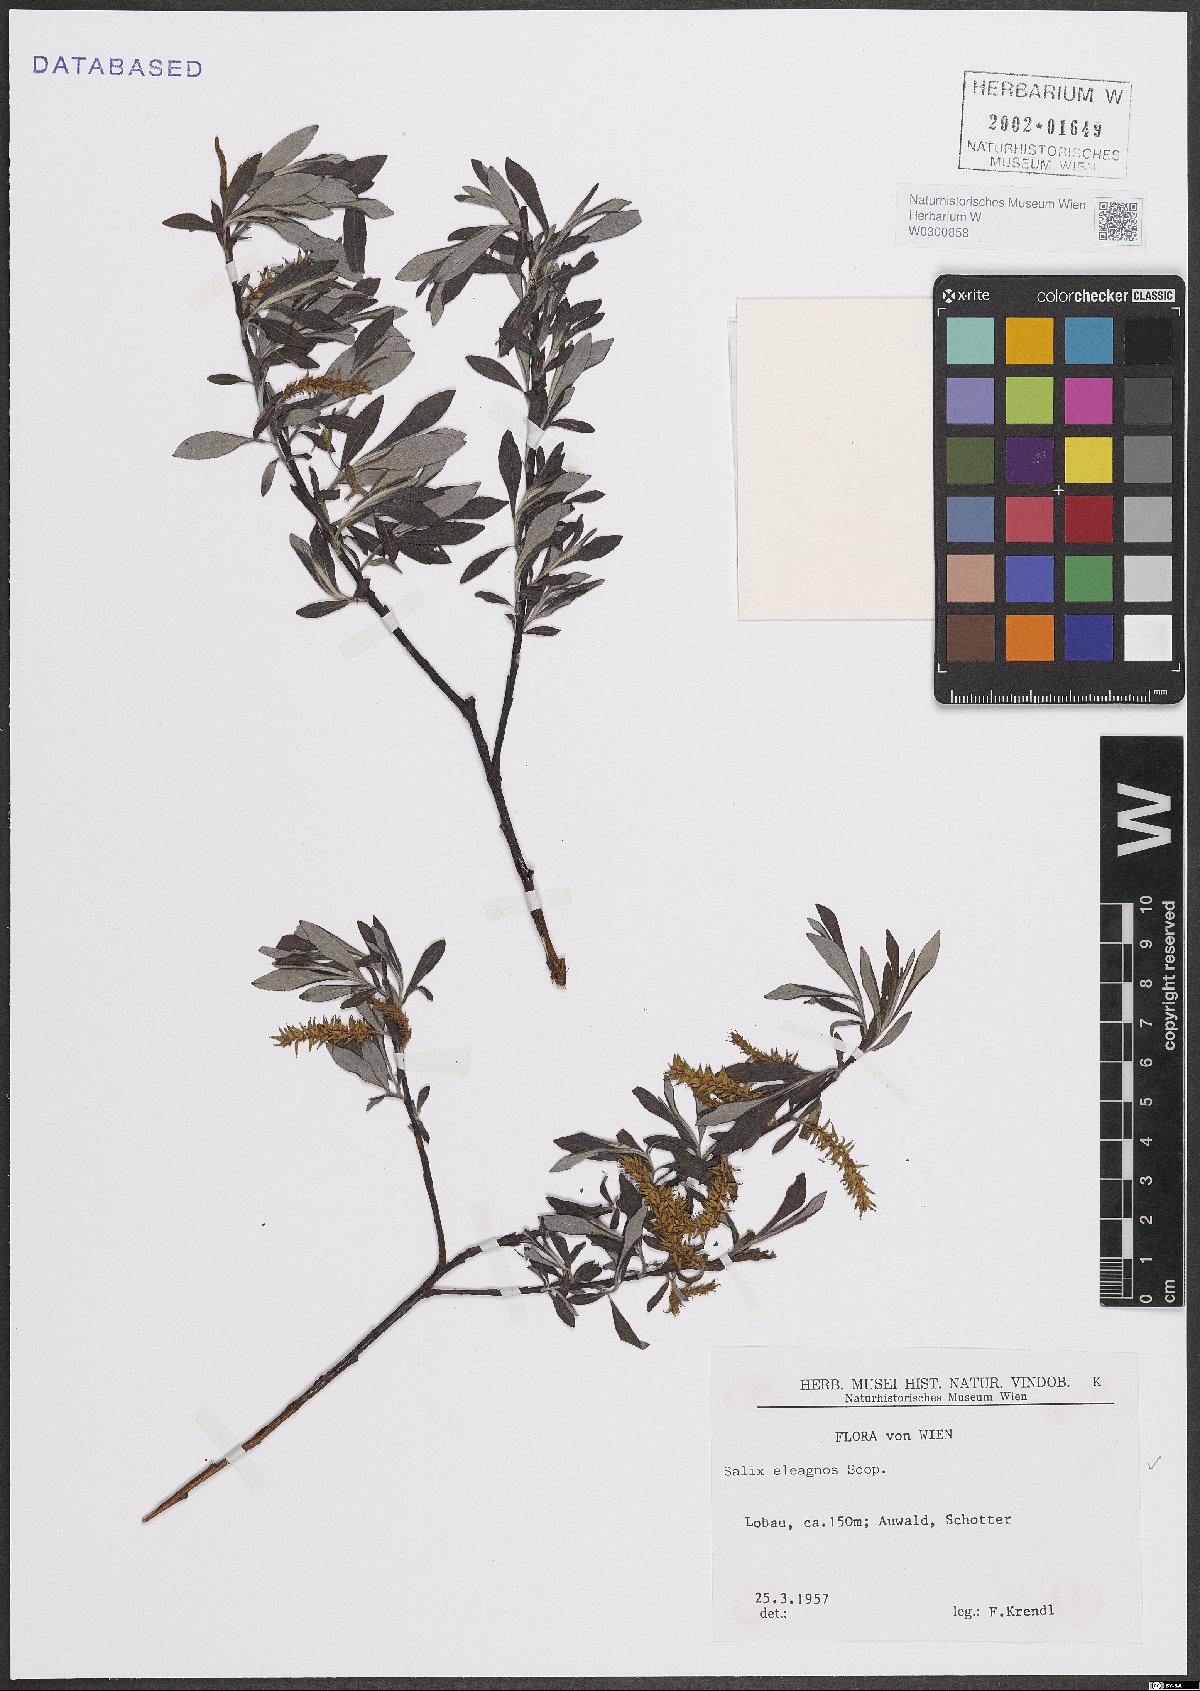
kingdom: Plantae
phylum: Tracheophyta
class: Magnoliopsida
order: Malpighiales
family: Salicaceae
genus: Salix
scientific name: Salix eleagnos
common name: Elaeagnus willow
